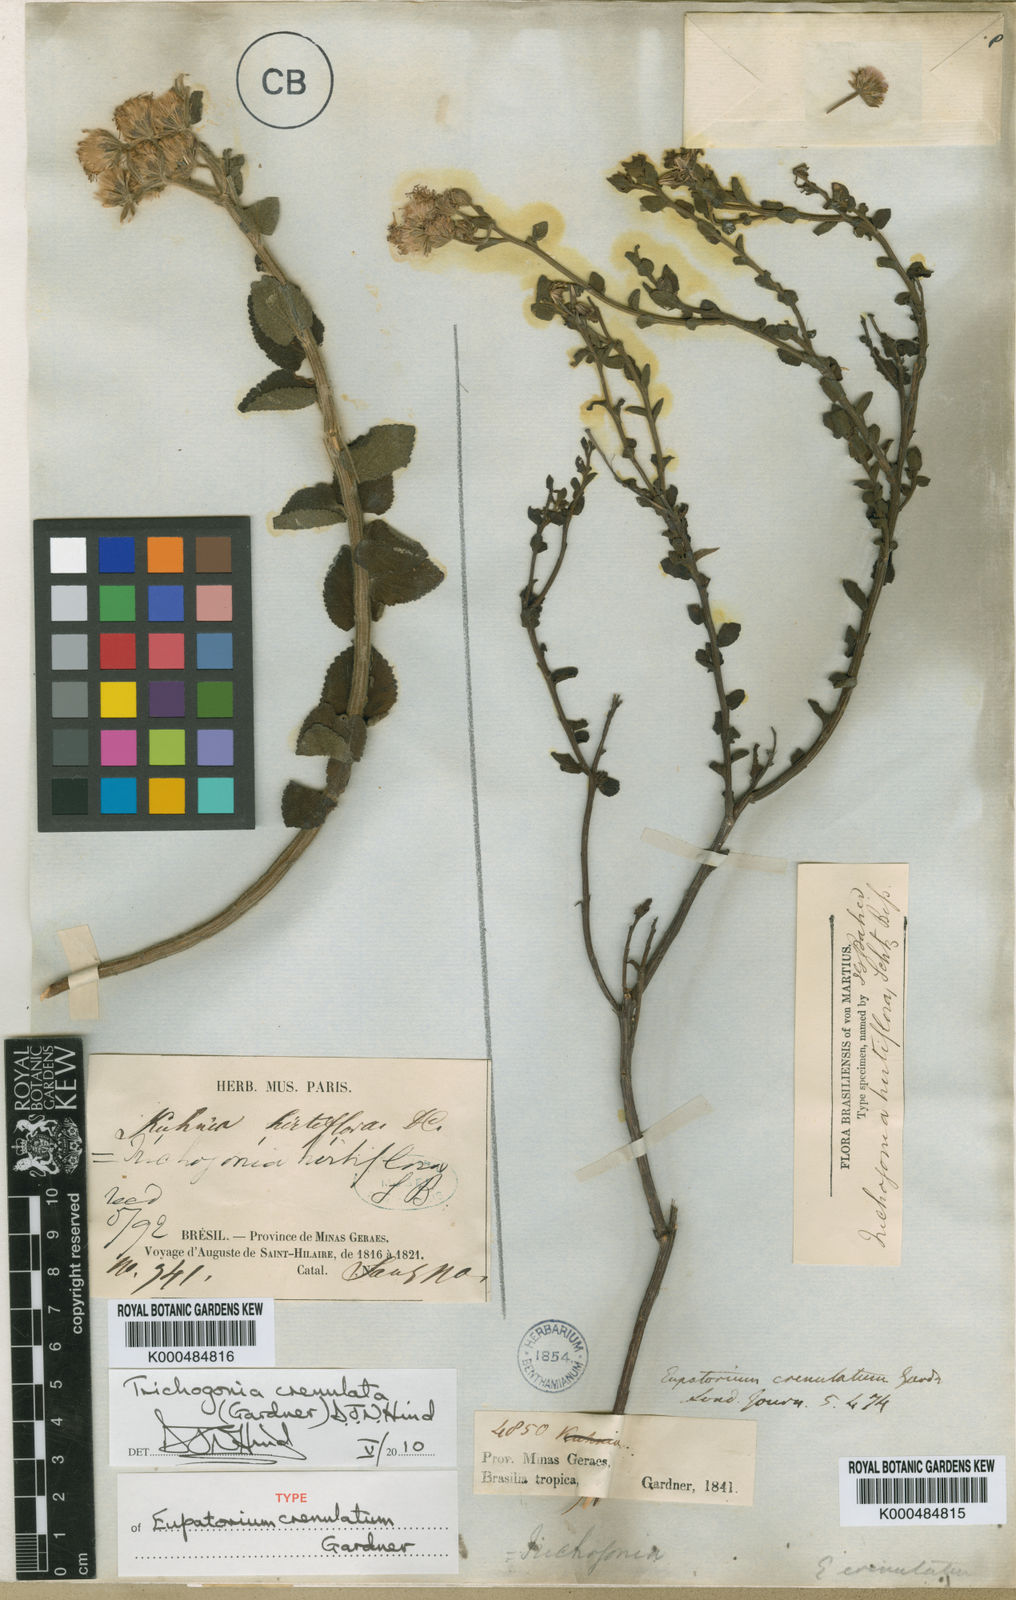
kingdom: Plantae
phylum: Tracheophyta
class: Magnoliopsida
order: Asterales
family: Asteraceae
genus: Trichogonia
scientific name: Trichogonia crenulata
